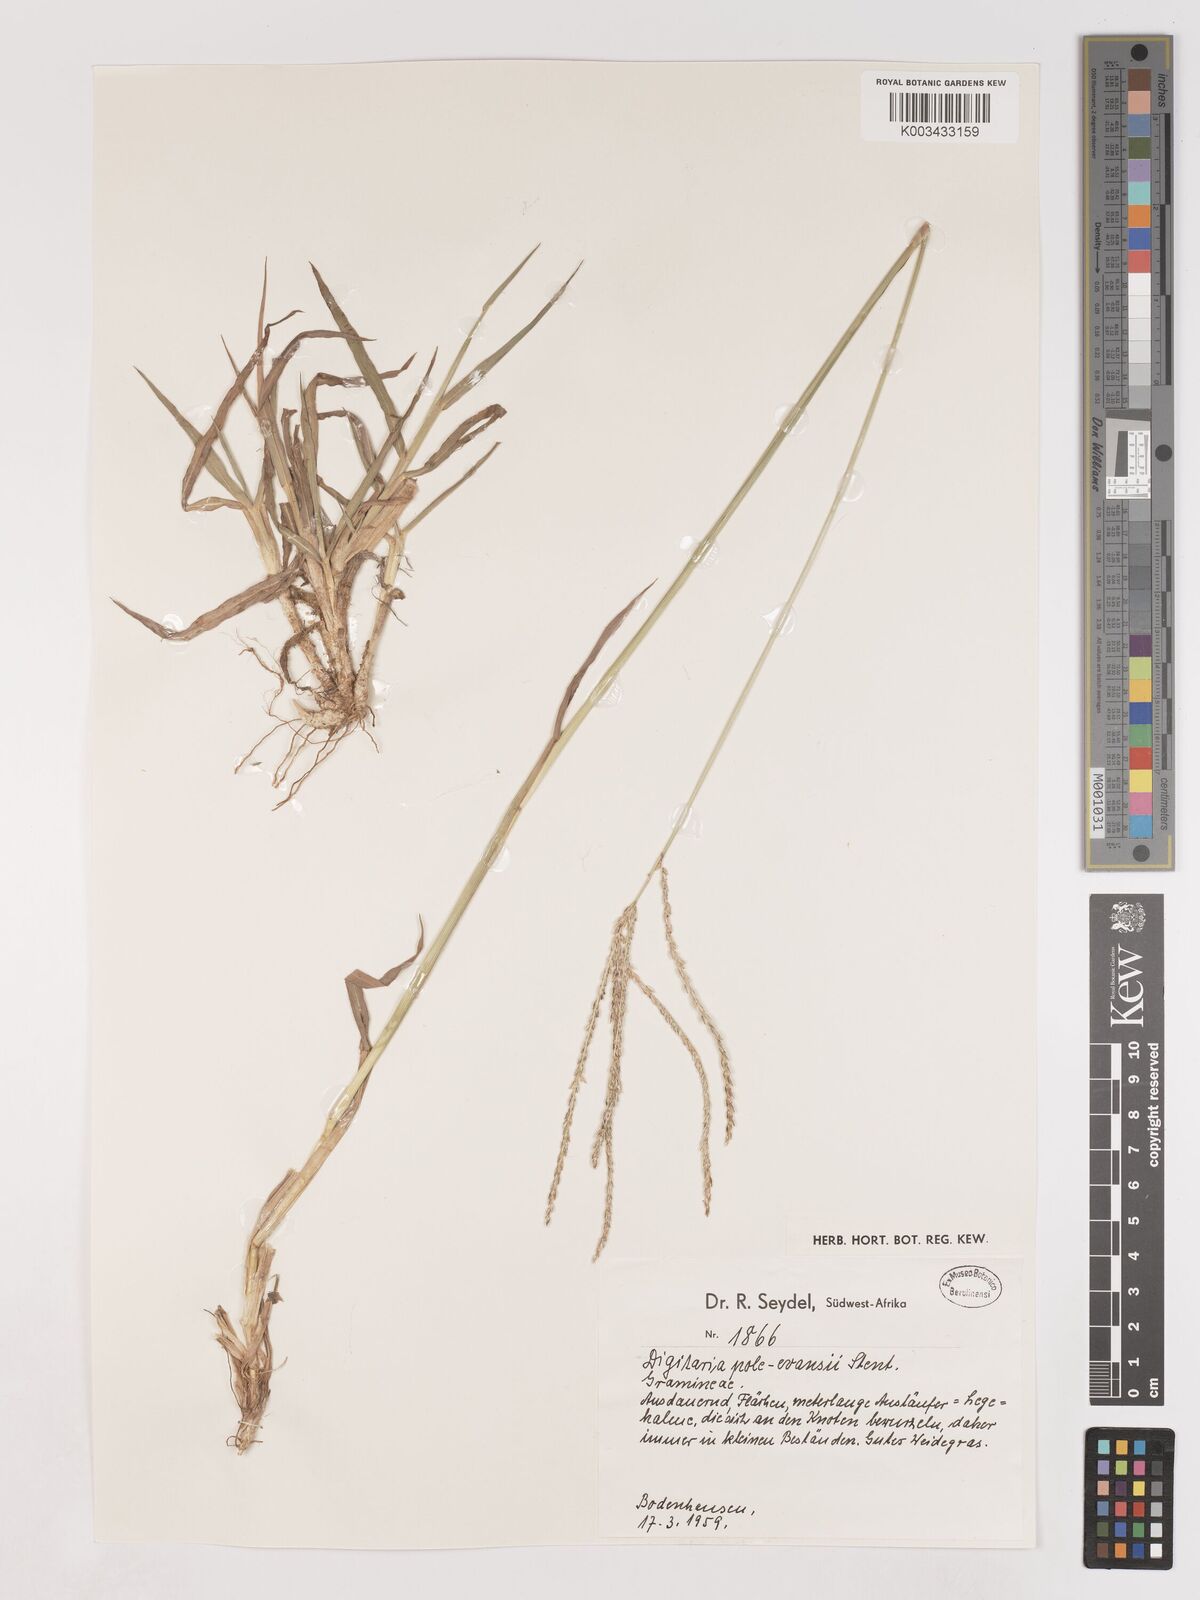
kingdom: Plantae
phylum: Tracheophyta
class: Liliopsida
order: Poales
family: Poaceae
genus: Digitaria
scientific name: Digitaria milanjiana
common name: Madagascar crabgrass
